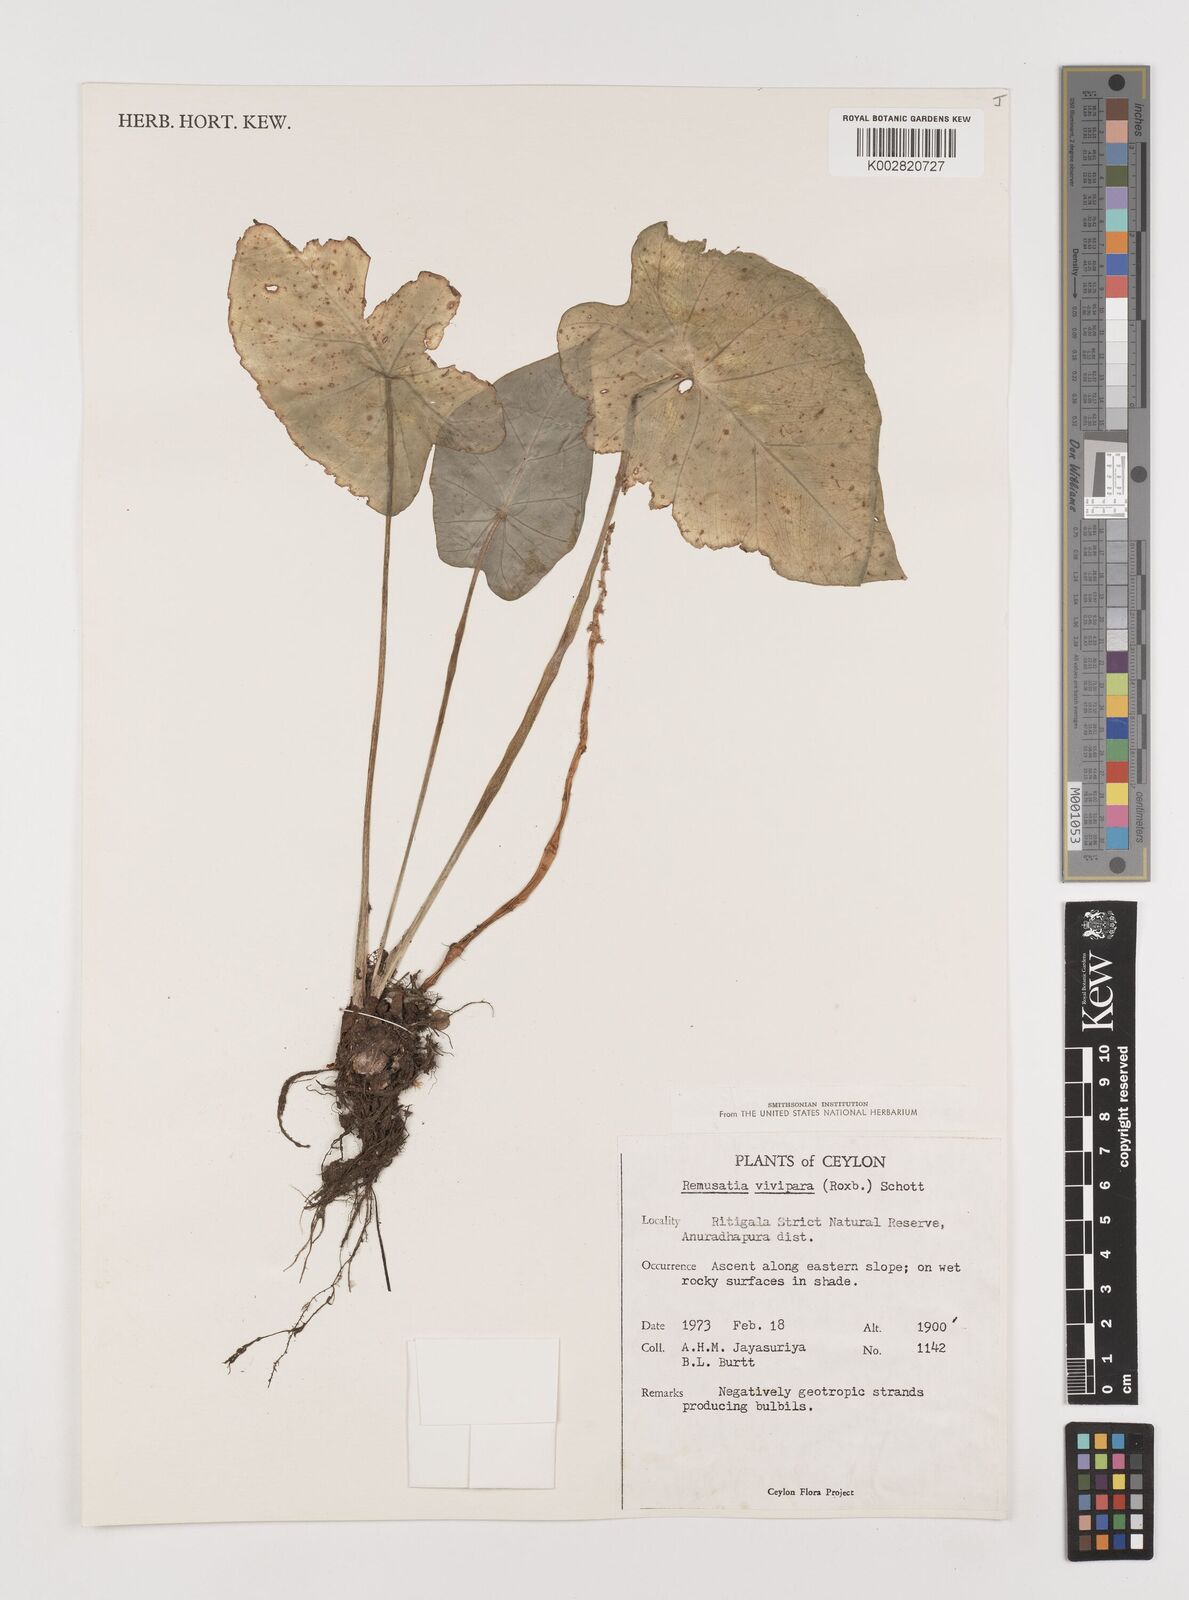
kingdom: Plantae
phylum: Tracheophyta
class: Liliopsida
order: Alismatales
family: Araceae
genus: Remusatia
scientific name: Remusatia vivipara
